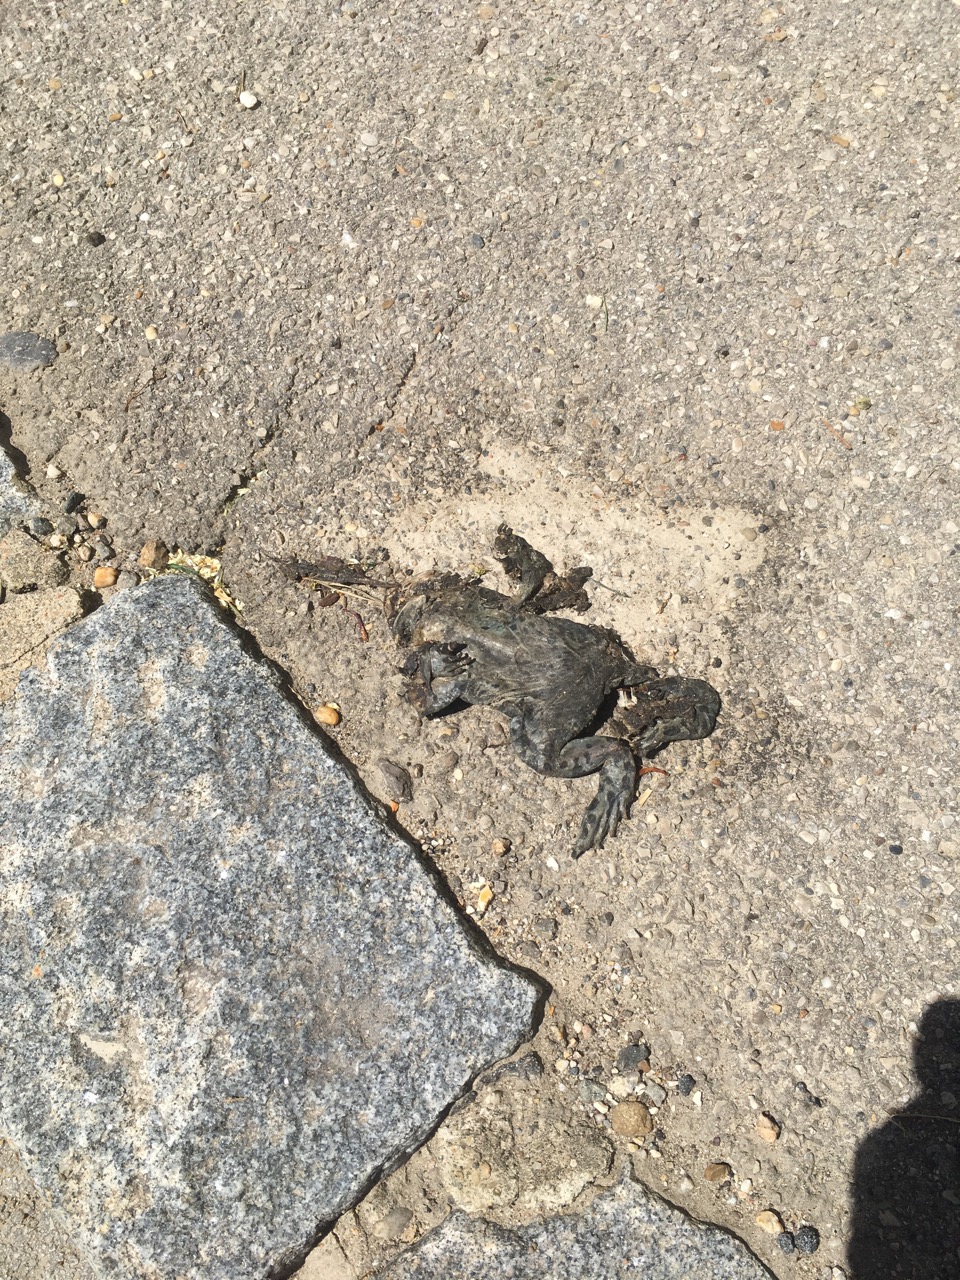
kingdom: Animalia
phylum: Chordata
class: Amphibia
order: Anura
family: Bufonidae
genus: Bufotes
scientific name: Bufotes viridis
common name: European green toad
